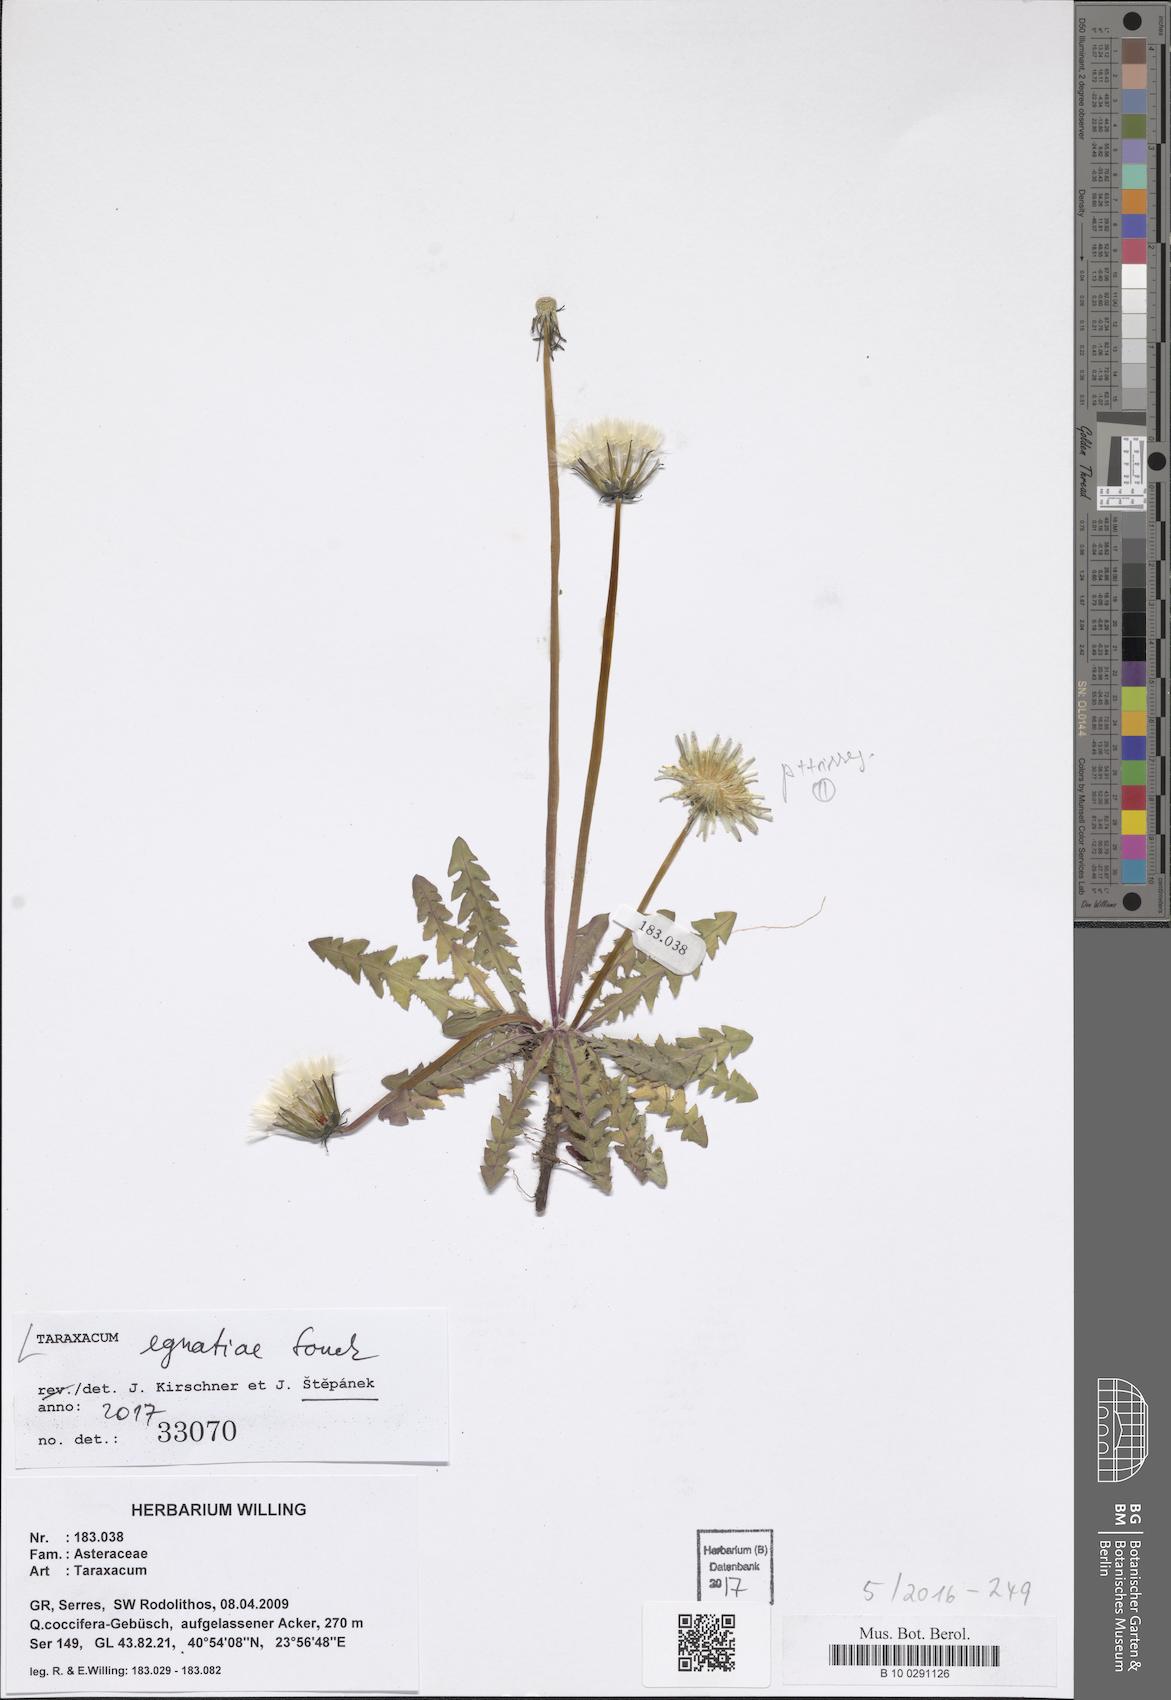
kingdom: Plantae
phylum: Tracheophyta
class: Magnoliopsida
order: Asterales
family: Asteraceae
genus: Taraxacum
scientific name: Taraxacum egnatiae
